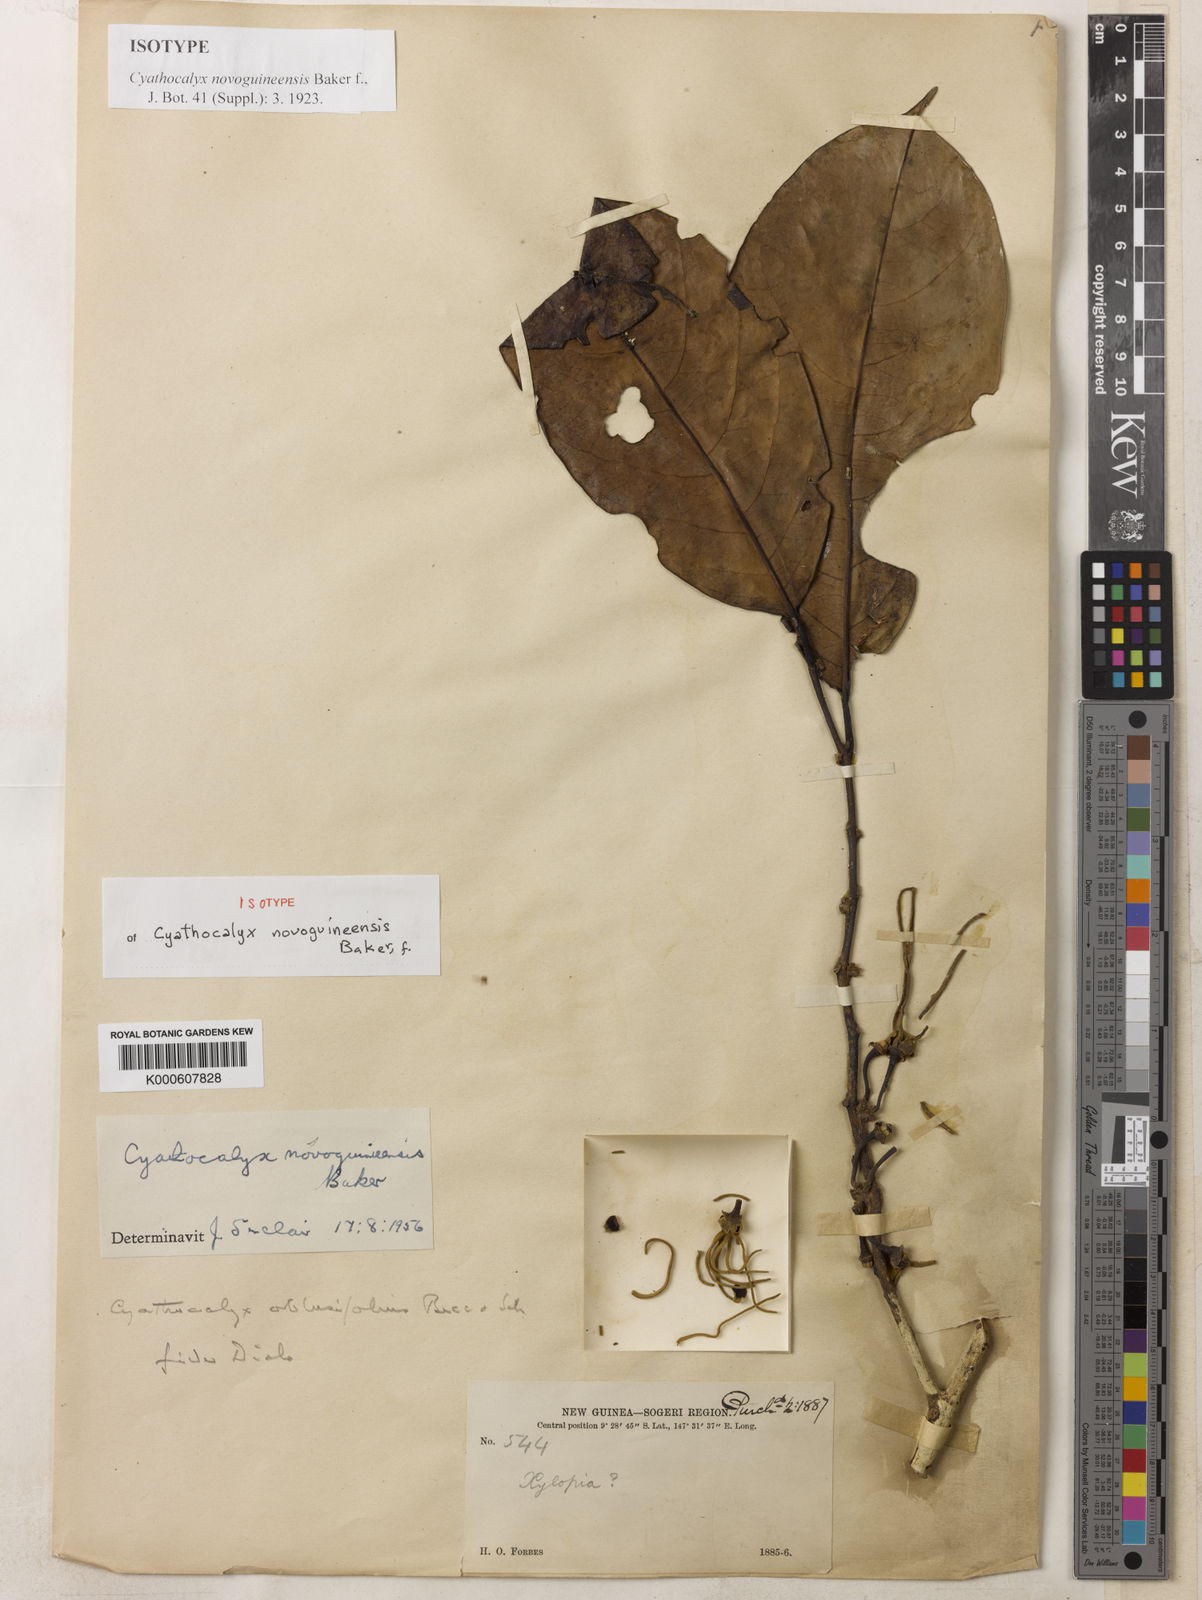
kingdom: Plantae
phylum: Tracheophyta
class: Magnoliopsida
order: Magnoliales
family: Annonaceae
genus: Cyathocalyx
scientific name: Cyathocalyx
